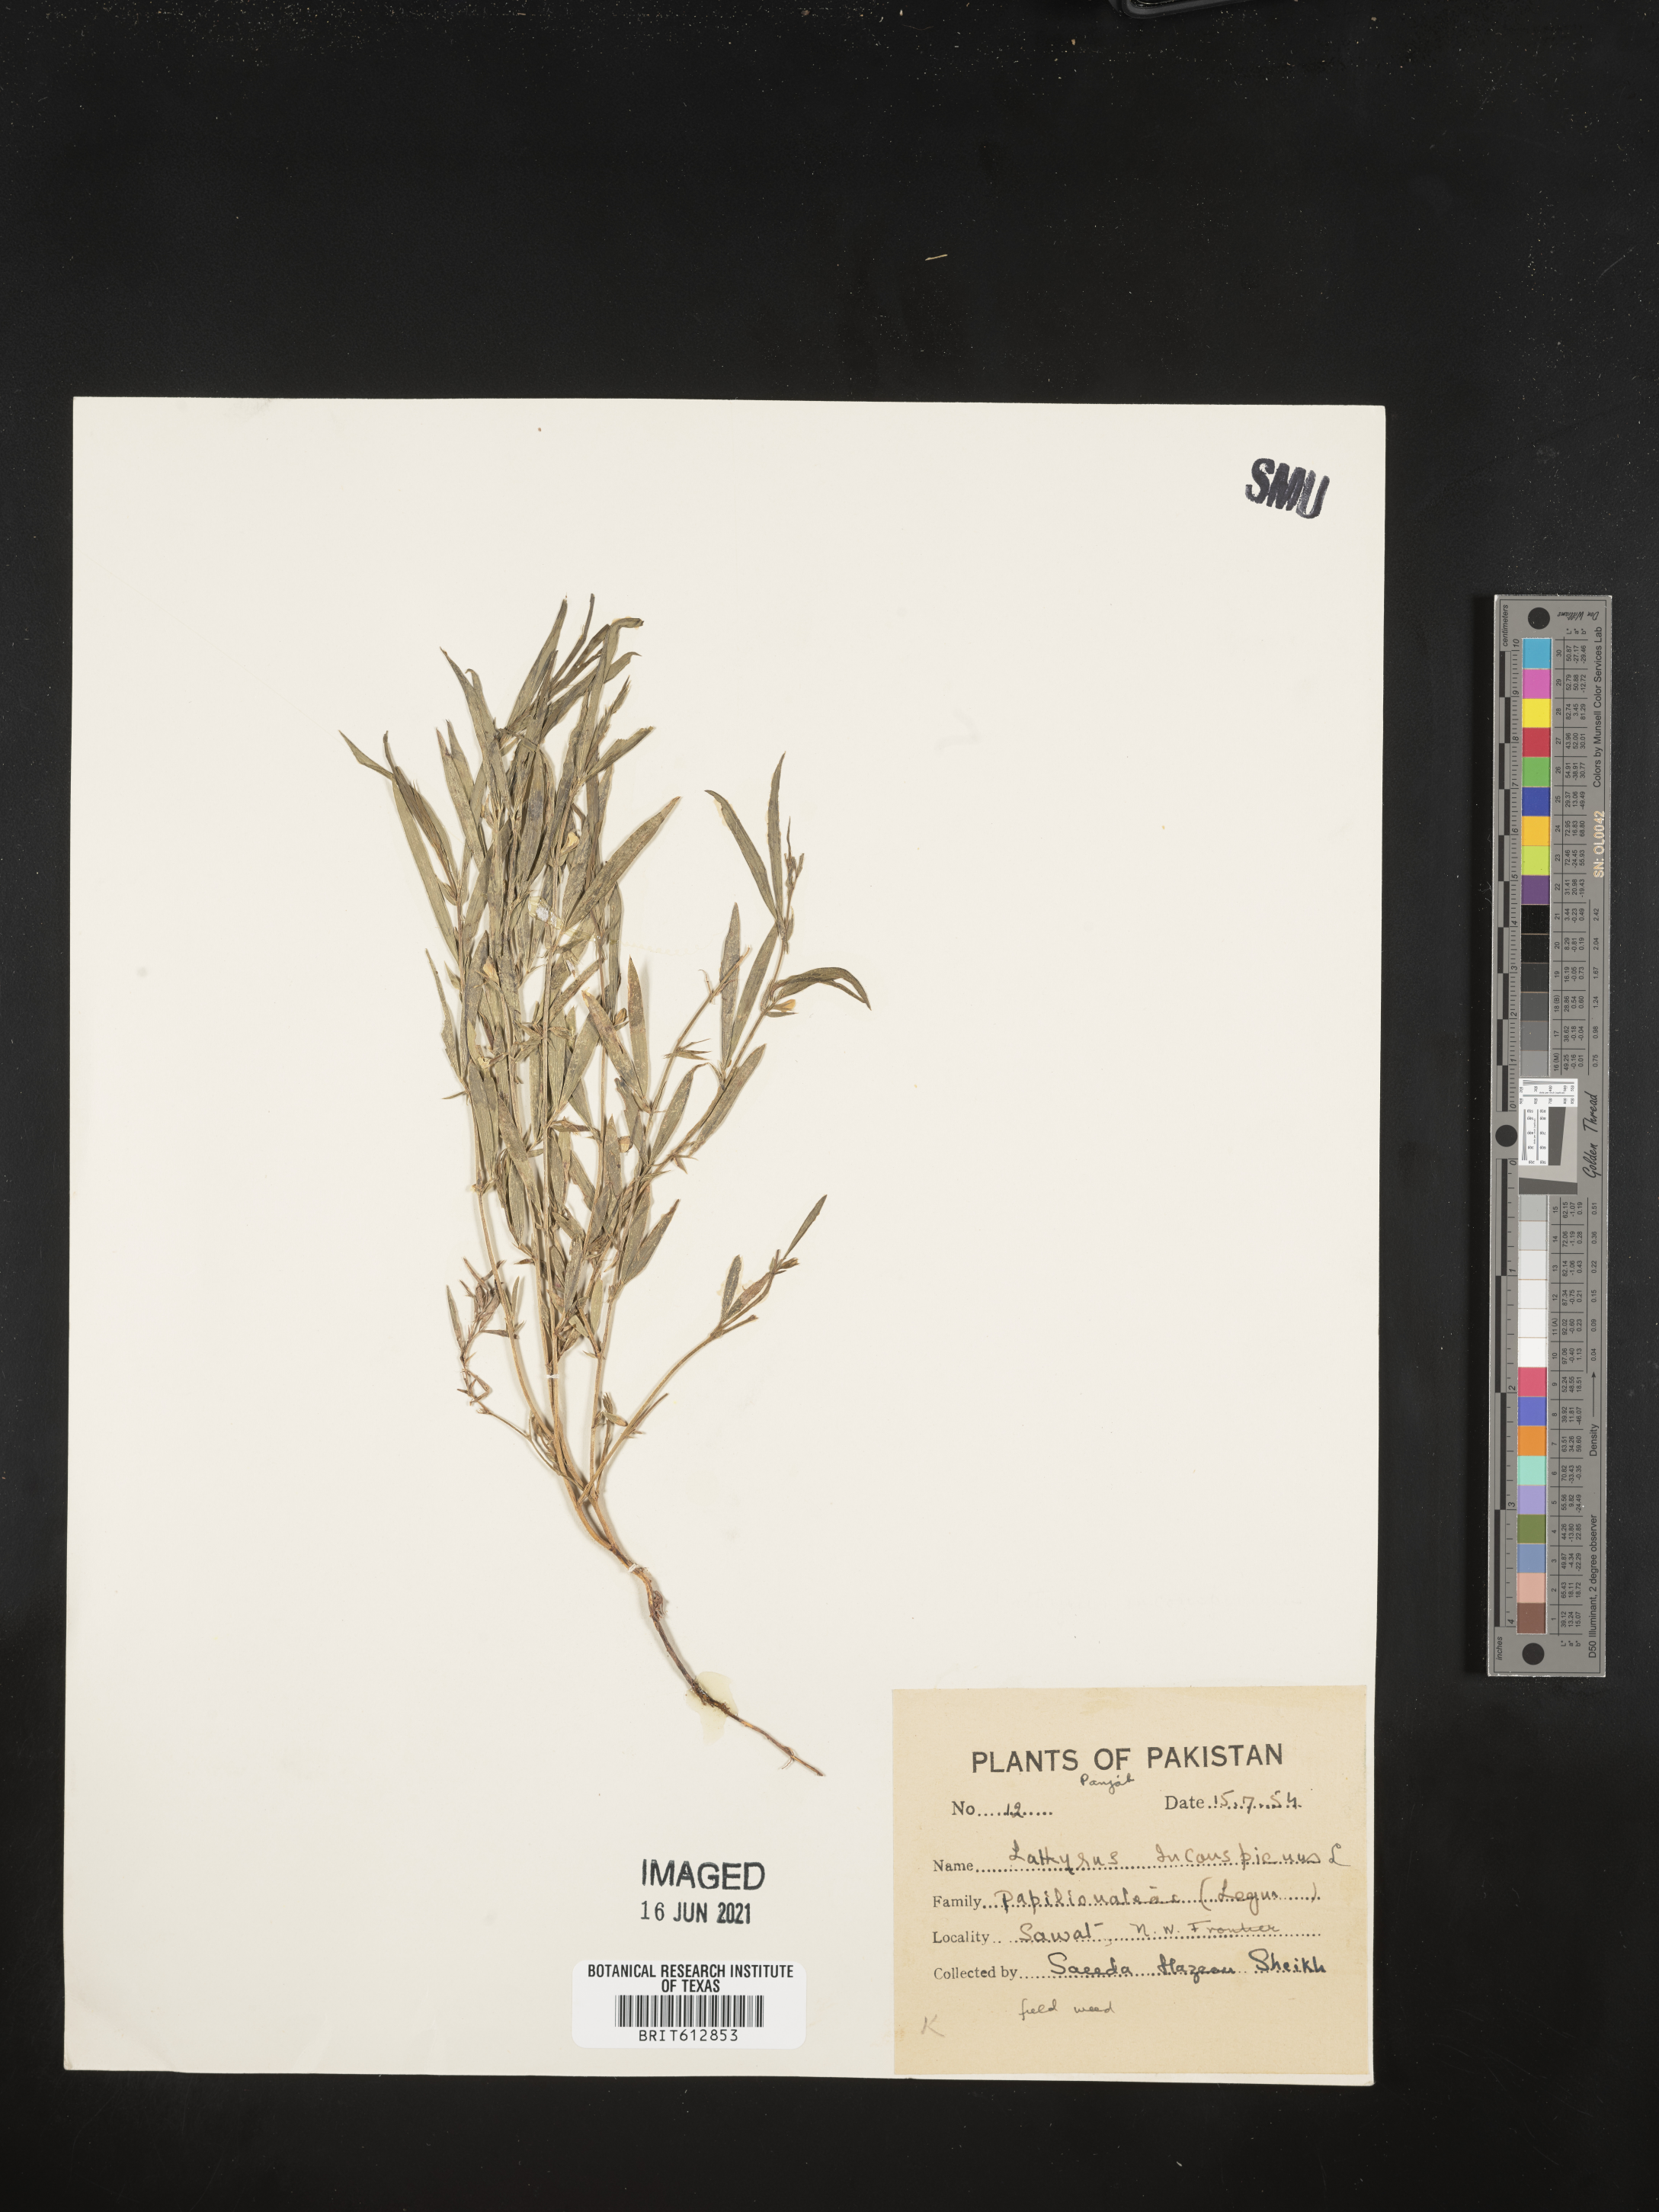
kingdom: Plantae
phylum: Tracheophyta
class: Magnoliopsida
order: Fabales
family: Fabaceae
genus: Lathyrus
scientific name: Lathyrus inconspicuus
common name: Inconspicuous pea
